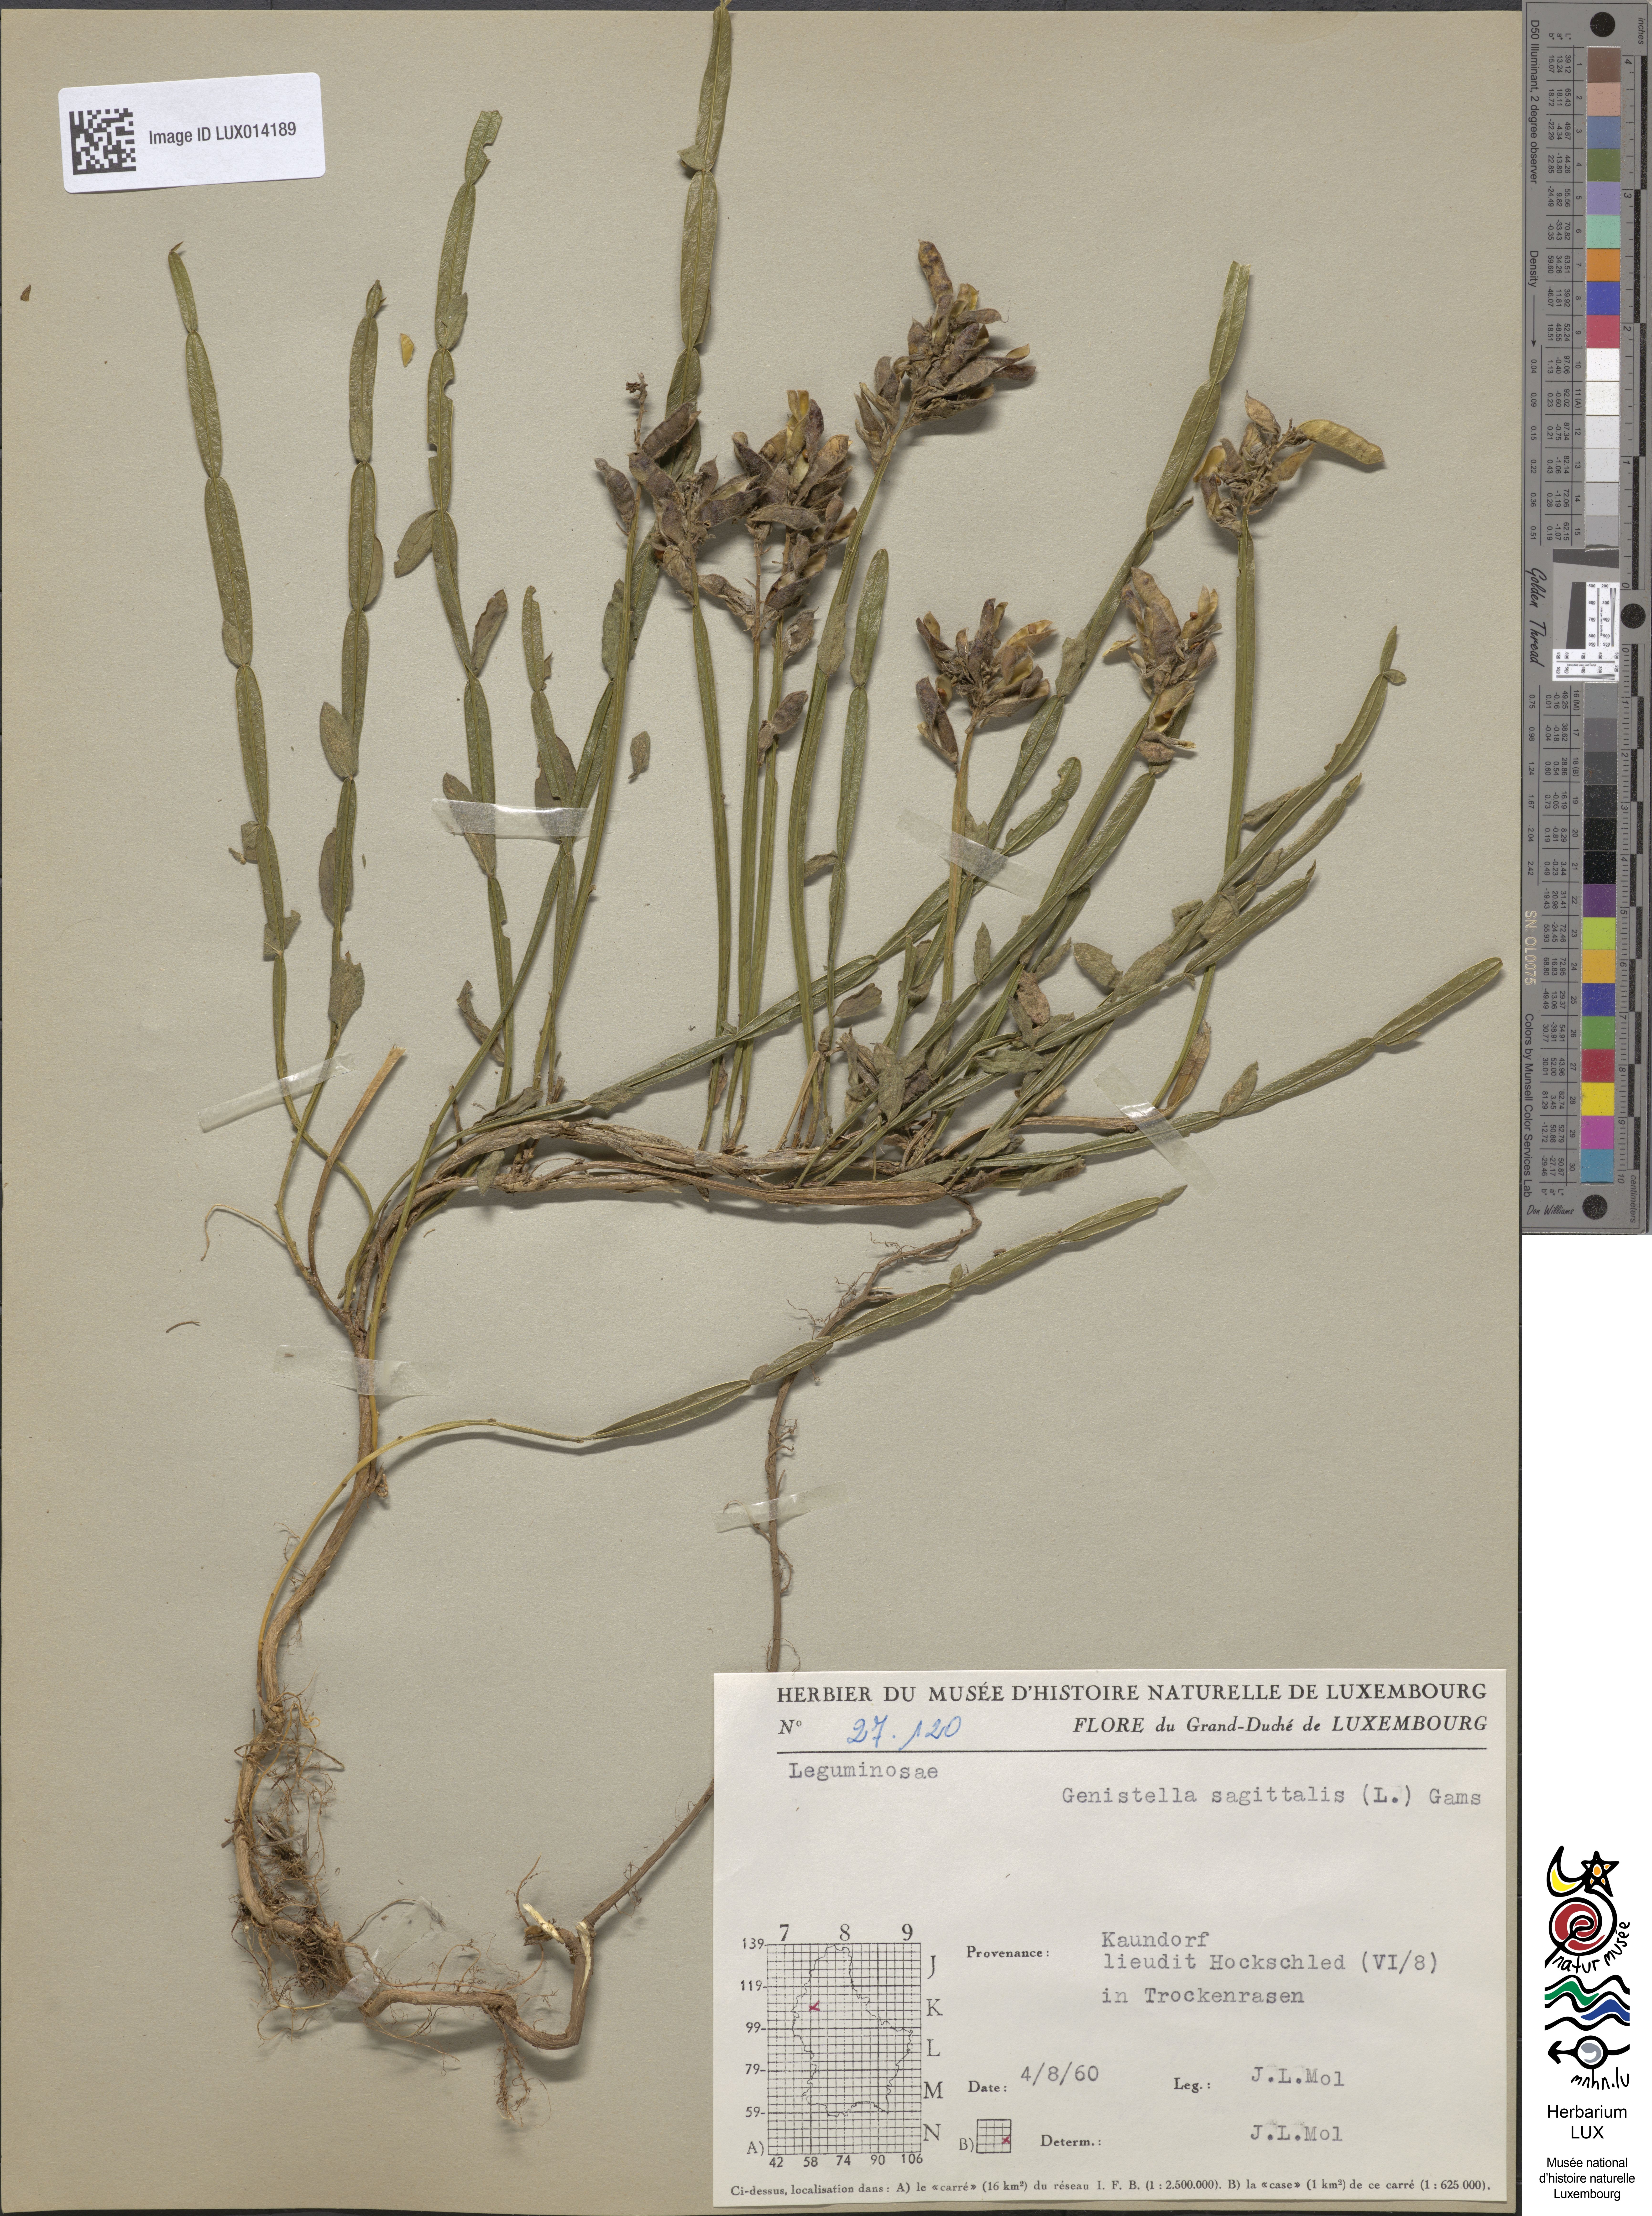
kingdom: Plantae
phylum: Tracheophyta
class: Magnoliopsida
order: Fabales
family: Fabaceae
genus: Genista
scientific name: Genista sagittalis
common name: Winged greenweed
